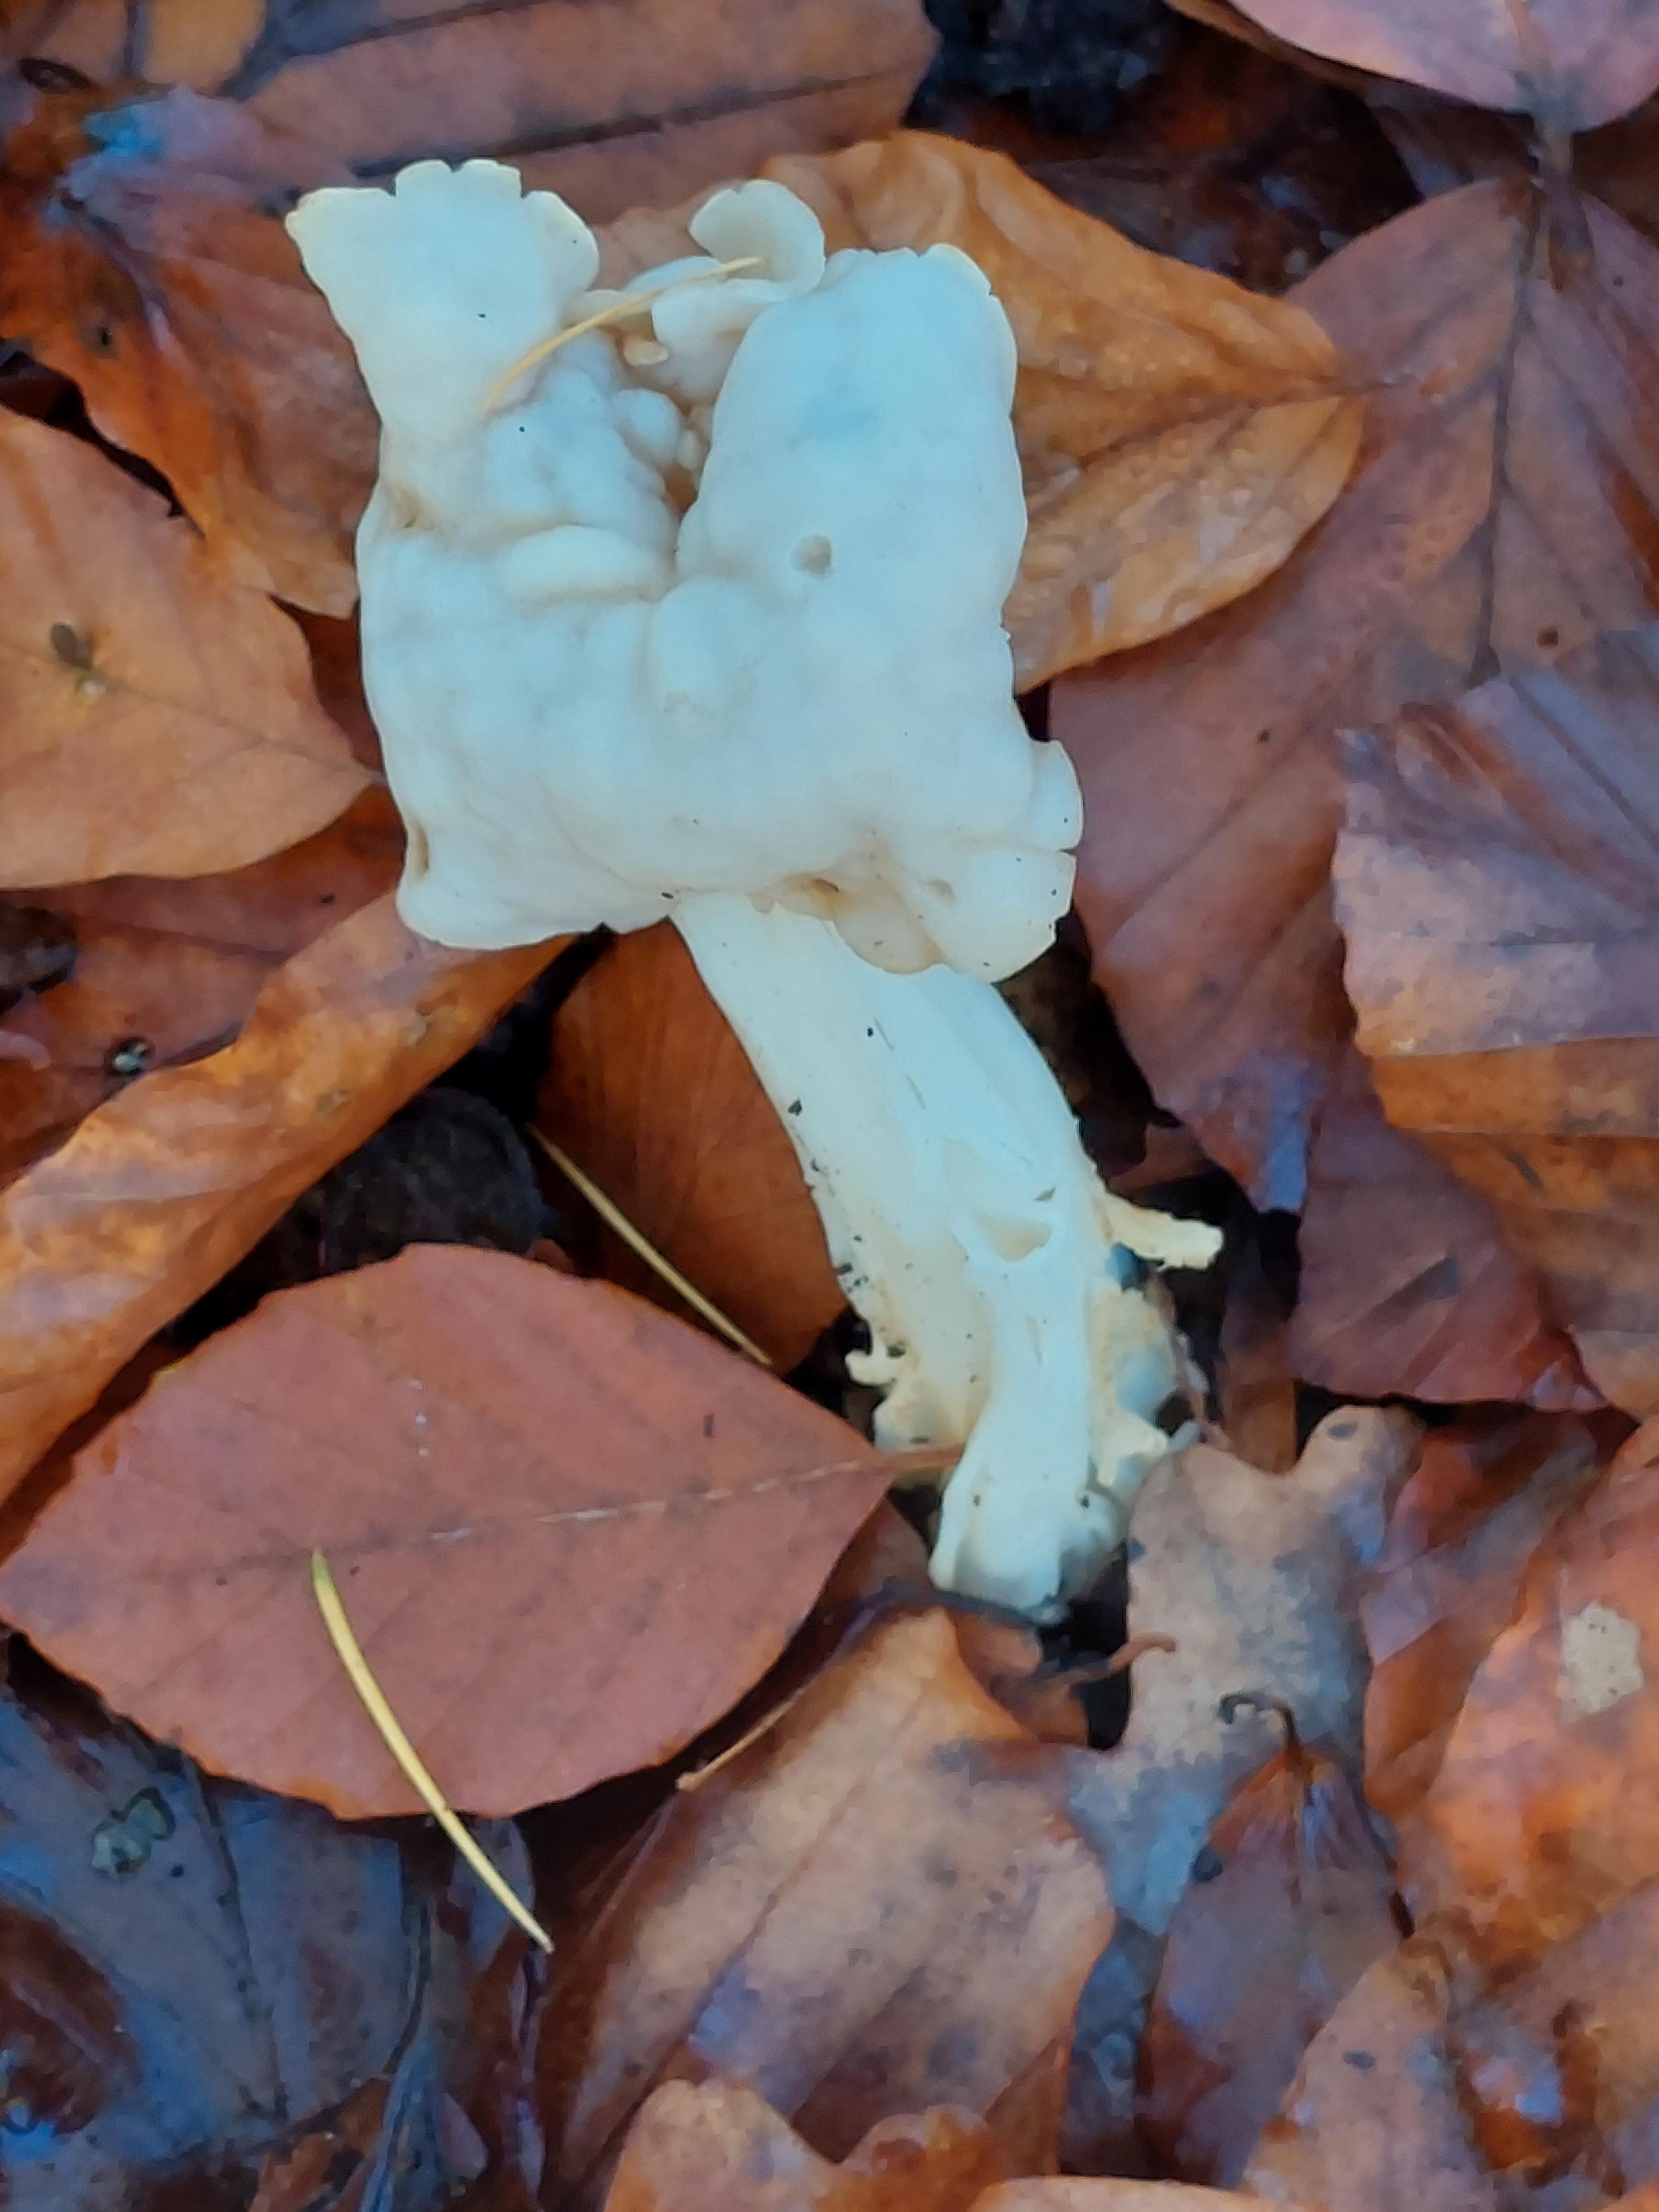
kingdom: Fungi
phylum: Ascomycota
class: Pezizomycetes
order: Pezizales
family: Helvellaceae
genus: Helvella
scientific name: Helvella crispa
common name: kruset foldhat
